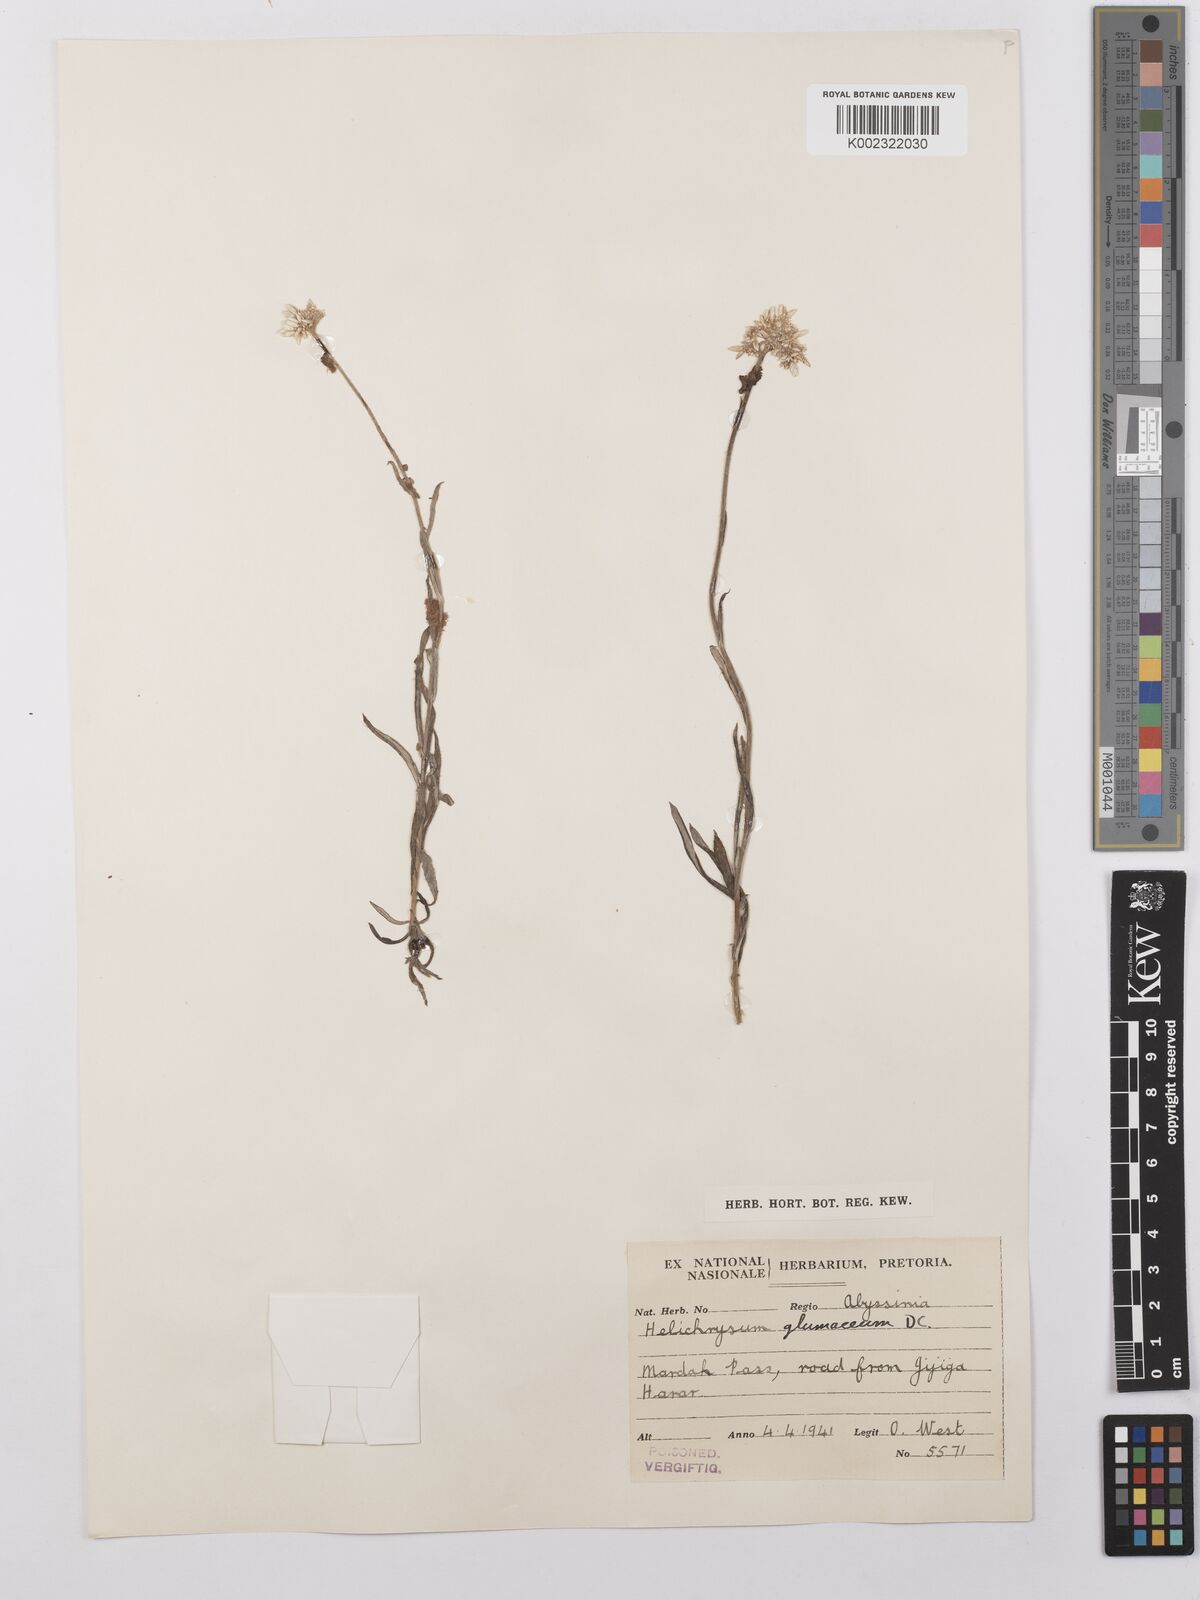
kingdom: Plantae
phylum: Tracheophyta
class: Magnoliopsida
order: Asterales
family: Asteraceae
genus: Helichrysum
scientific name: Helichrysum glumaceum
